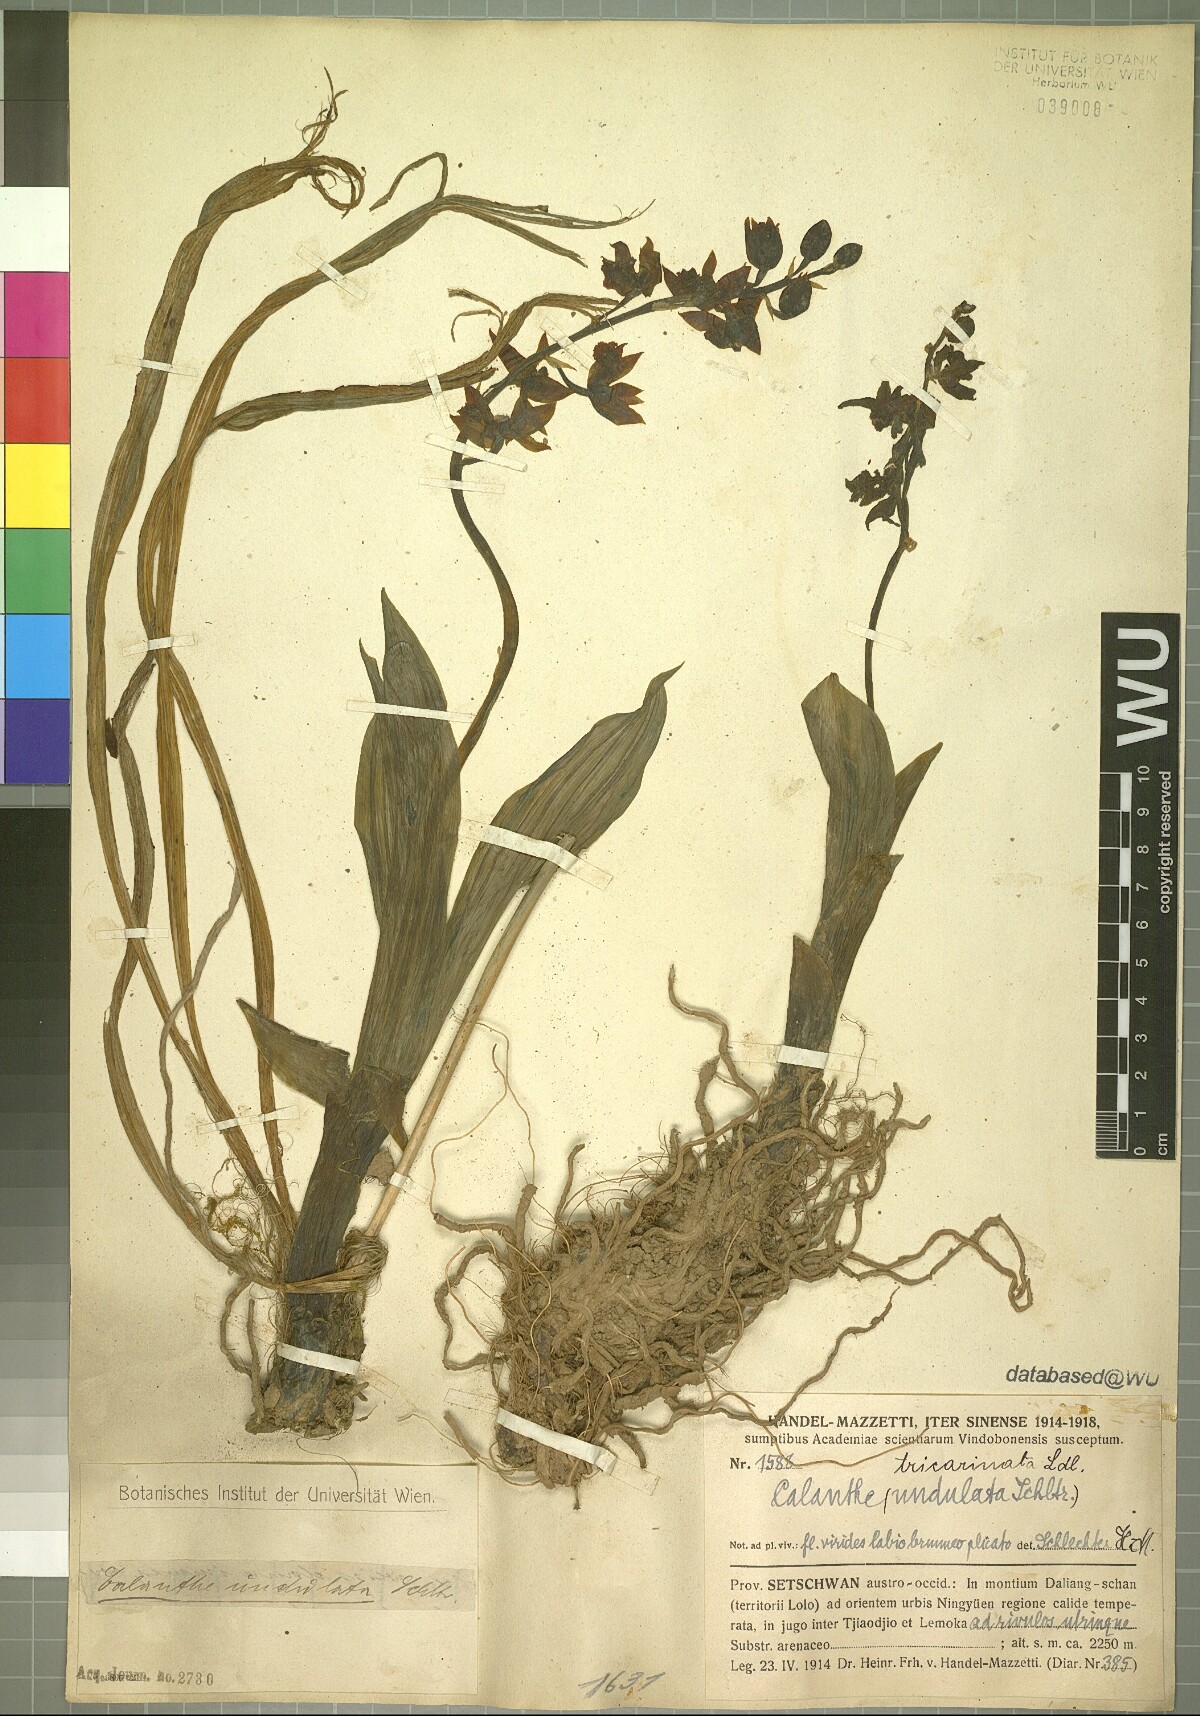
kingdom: Plantae
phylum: Tracheophyta
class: Liliopsida
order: Asparagales
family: Orchidaceae
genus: Calanthe
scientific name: Calanthe tricarinata
